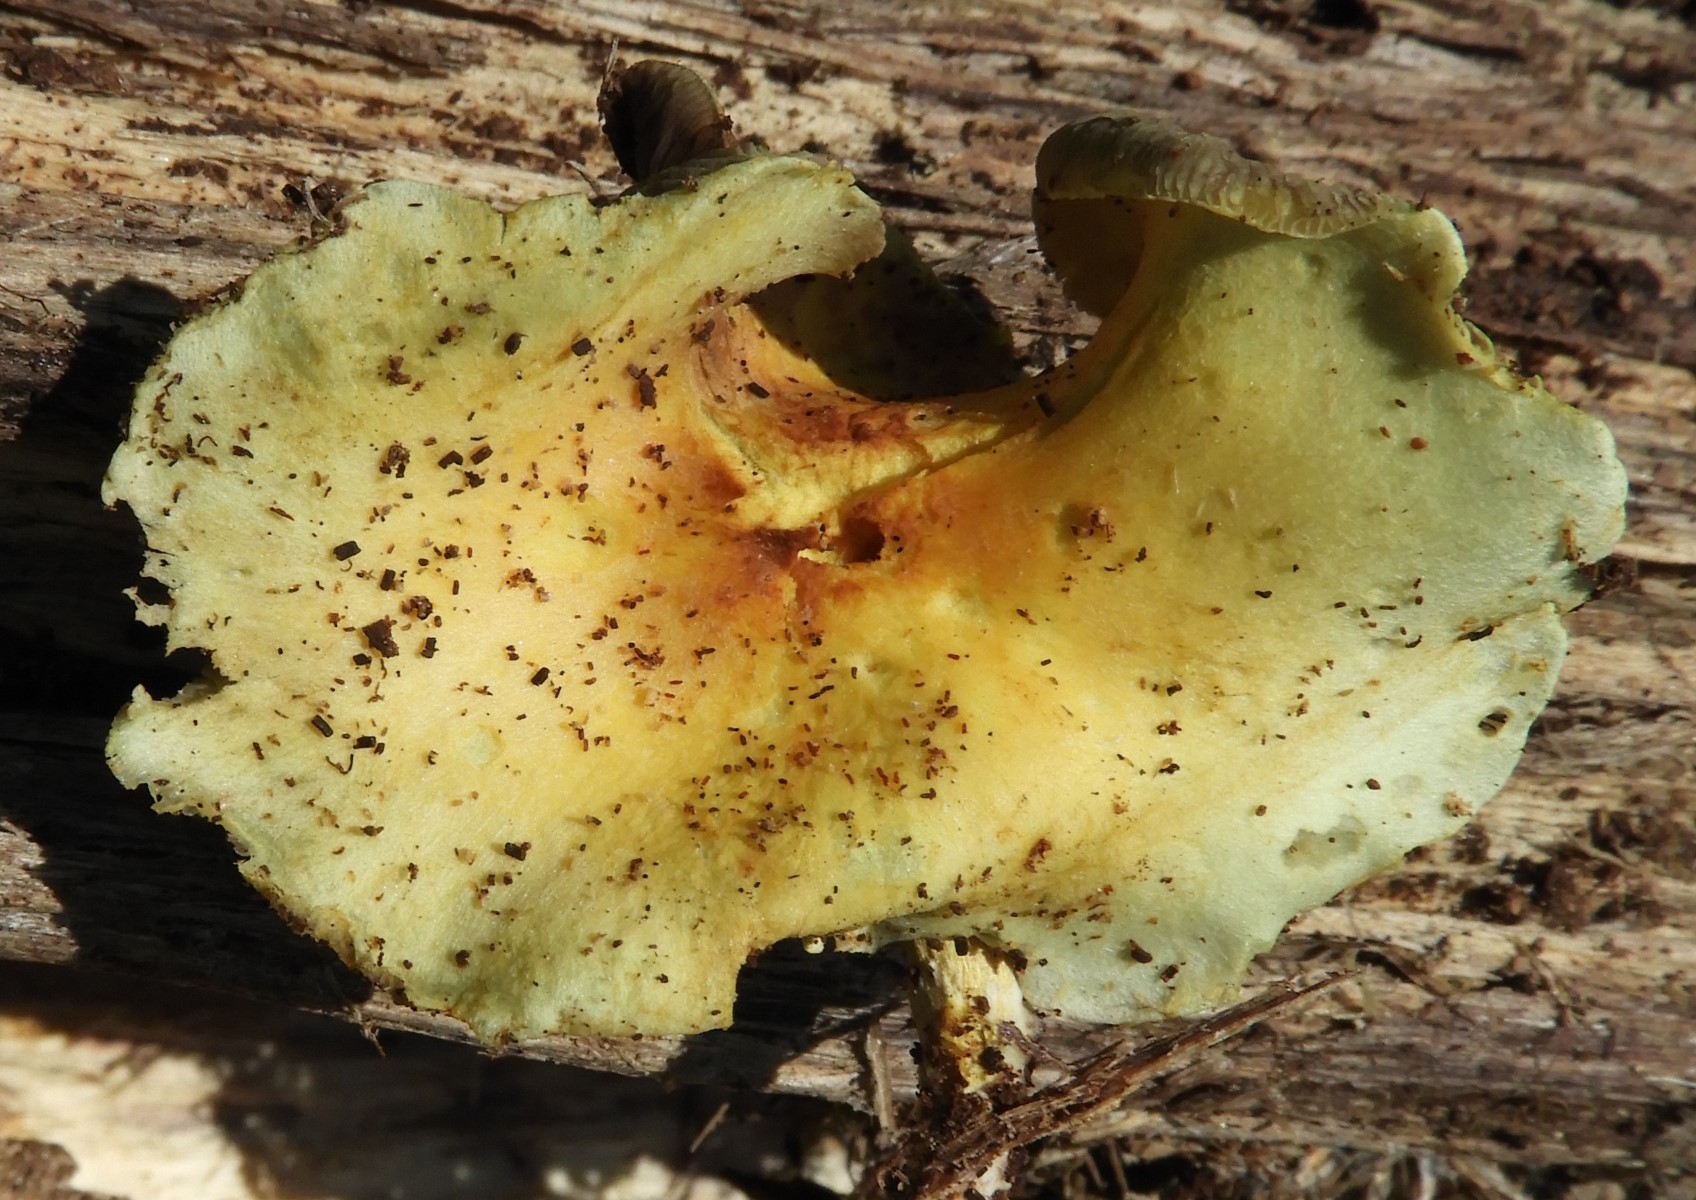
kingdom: Fungi
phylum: Basidiomycota
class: Agaricomycetes
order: Agaricales
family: Strophariaceae
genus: Hypholoma
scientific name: Hypholoma fasciculare
